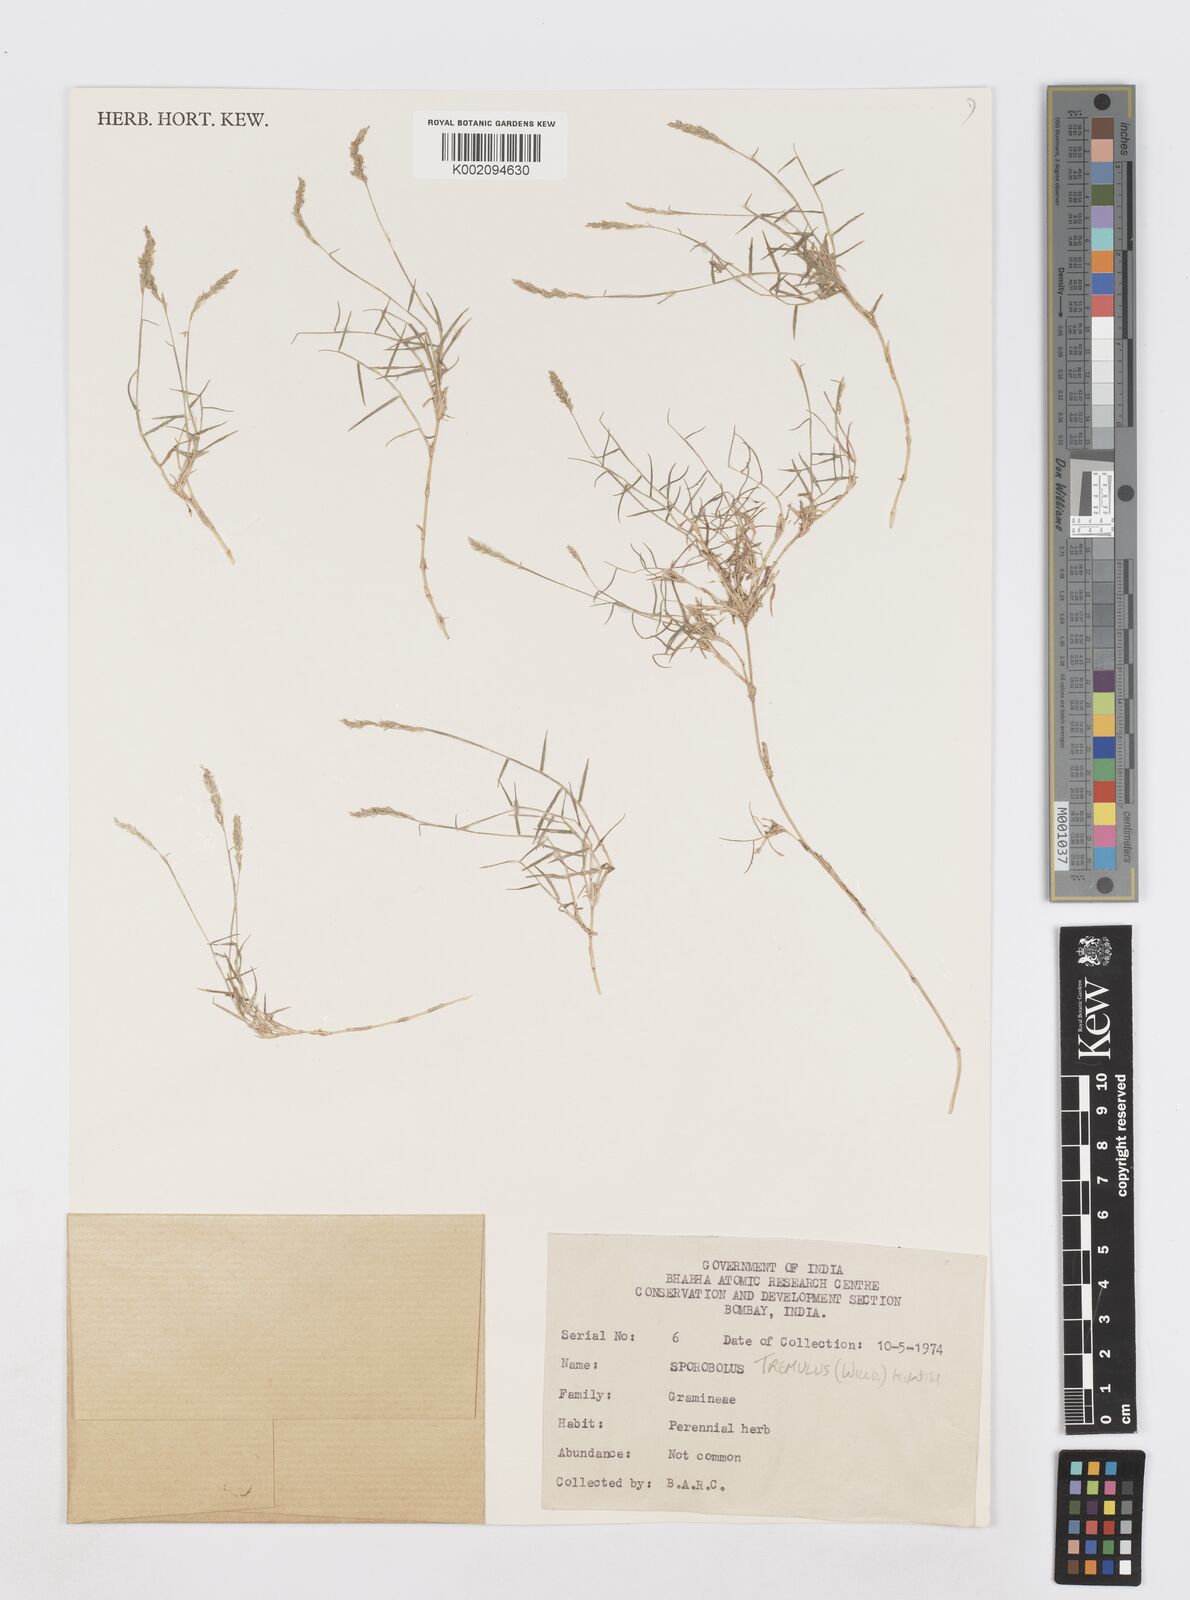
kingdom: Plantae
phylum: Tracheophyta
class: Liliopsida
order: Poales
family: Poaceae
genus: Sporobolus
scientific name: Sporobolus virginicus
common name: Beach dropseed
